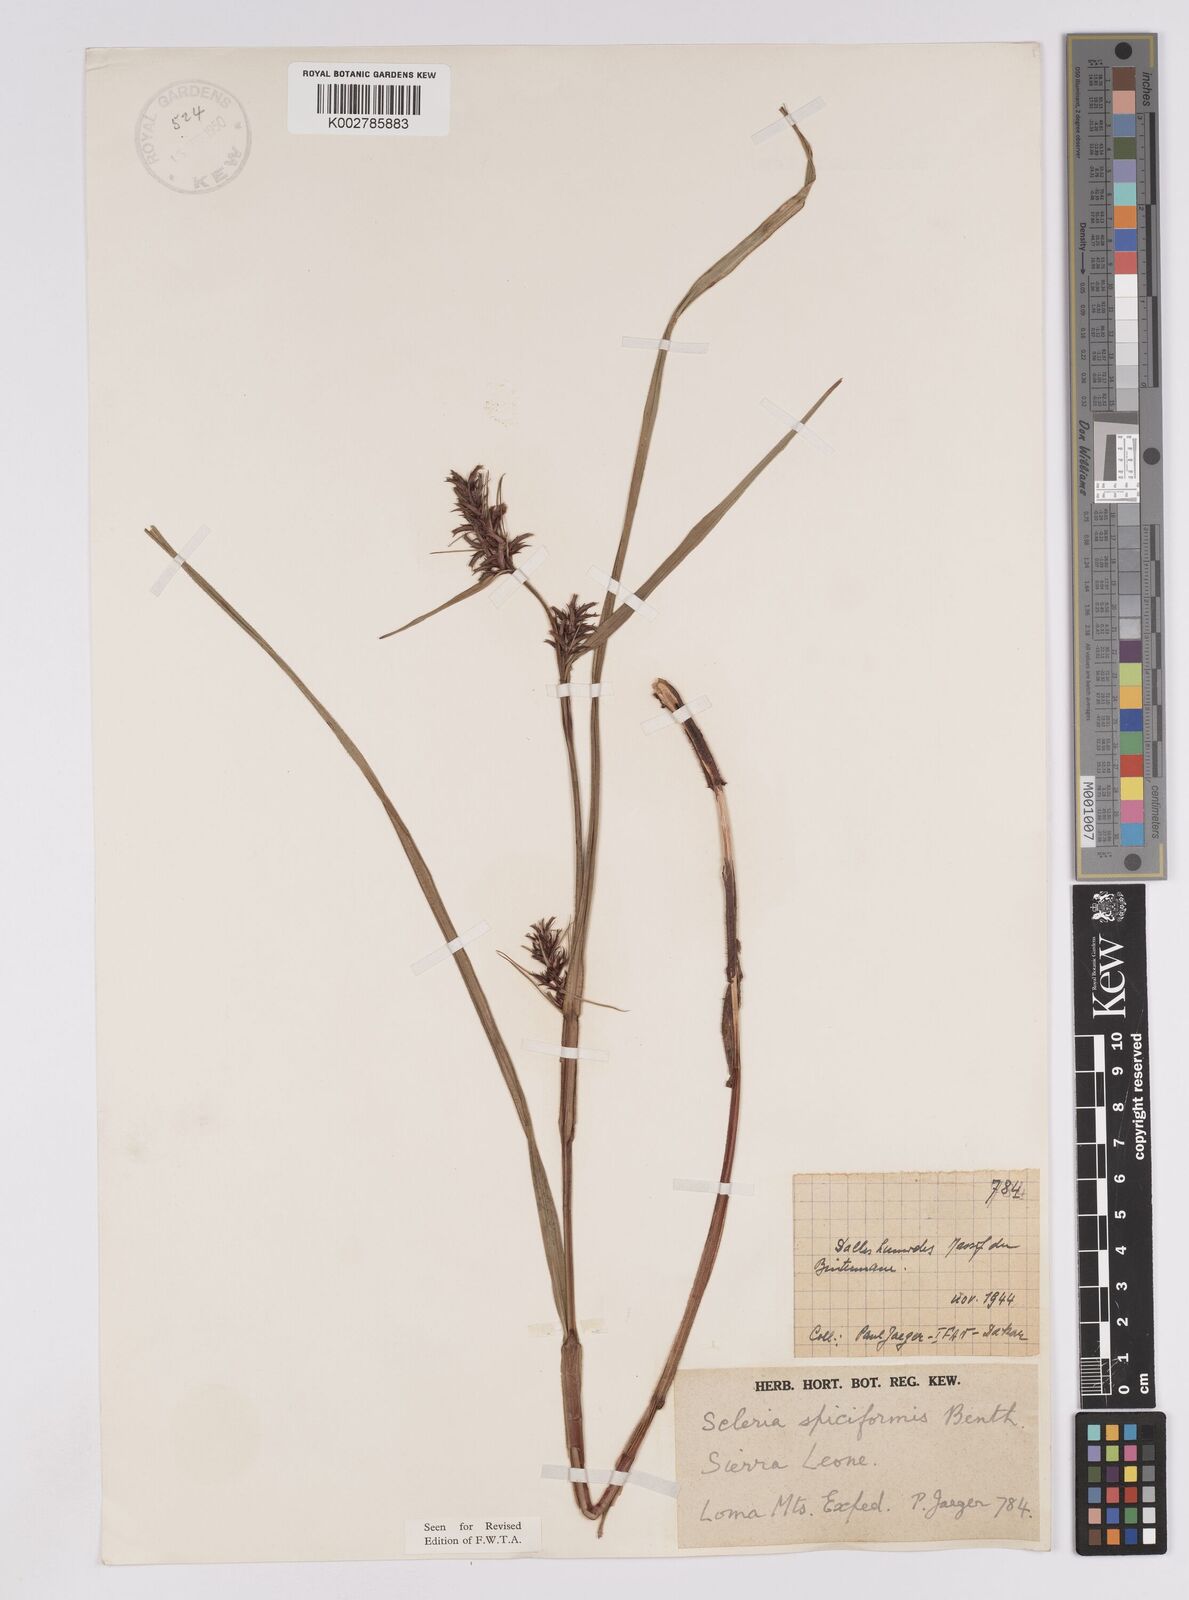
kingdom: Plantae
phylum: Tracheophyta
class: Liliopsida
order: Poales
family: Cyperaceae
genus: Scleria
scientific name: Scleria spiciformis
